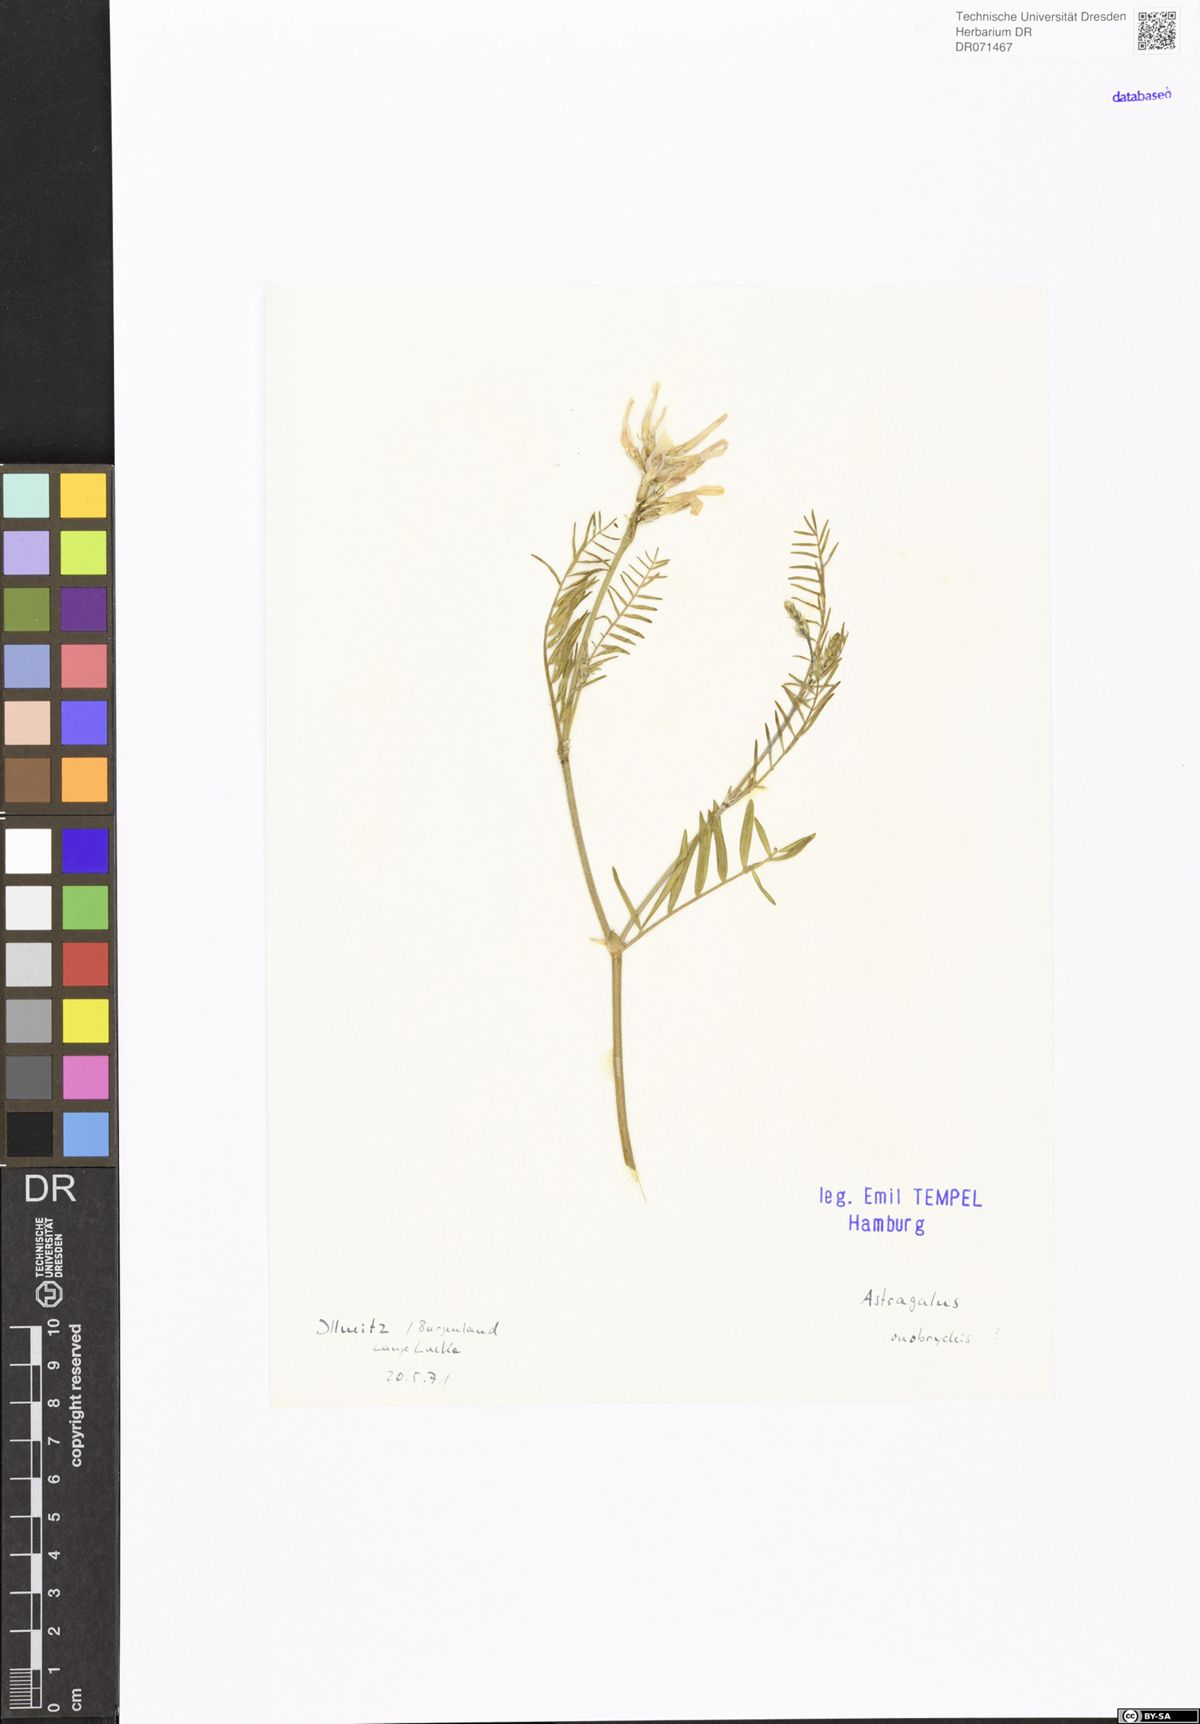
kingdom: Plantae
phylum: Tracheophyta
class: Magnoliopsida
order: Fabales
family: Fabaceae
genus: Astragalus
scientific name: Astragalus onobrychis
